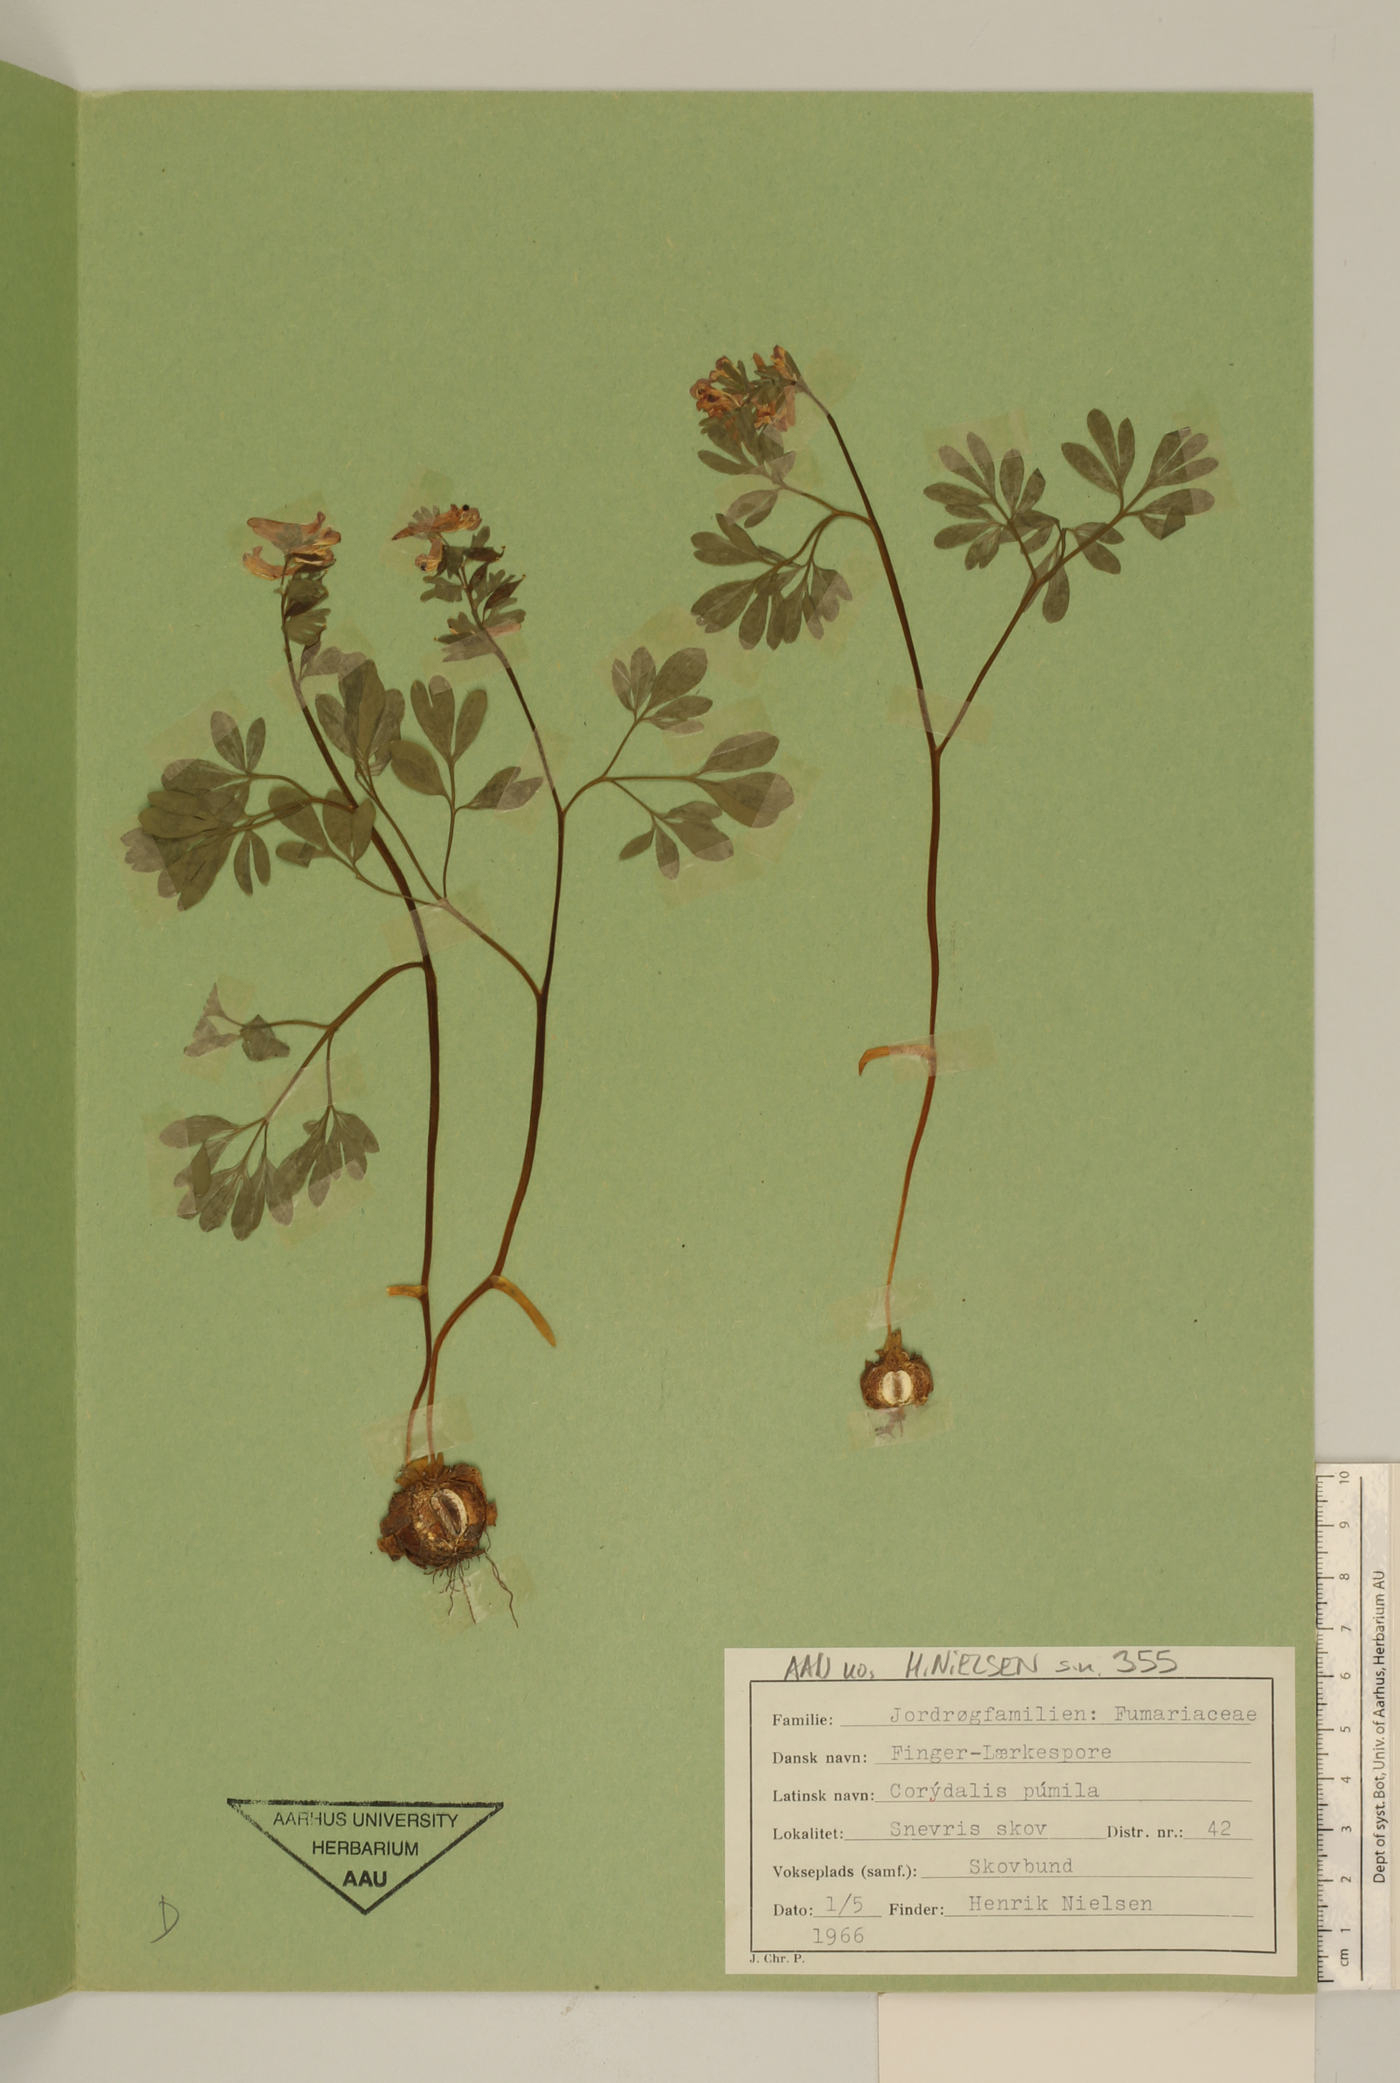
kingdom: Plantae
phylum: Tracheophyta
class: Magnoliopsida
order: Ranunculales
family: Papaveraceae
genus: Corydalis
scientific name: Corydalis pumila
